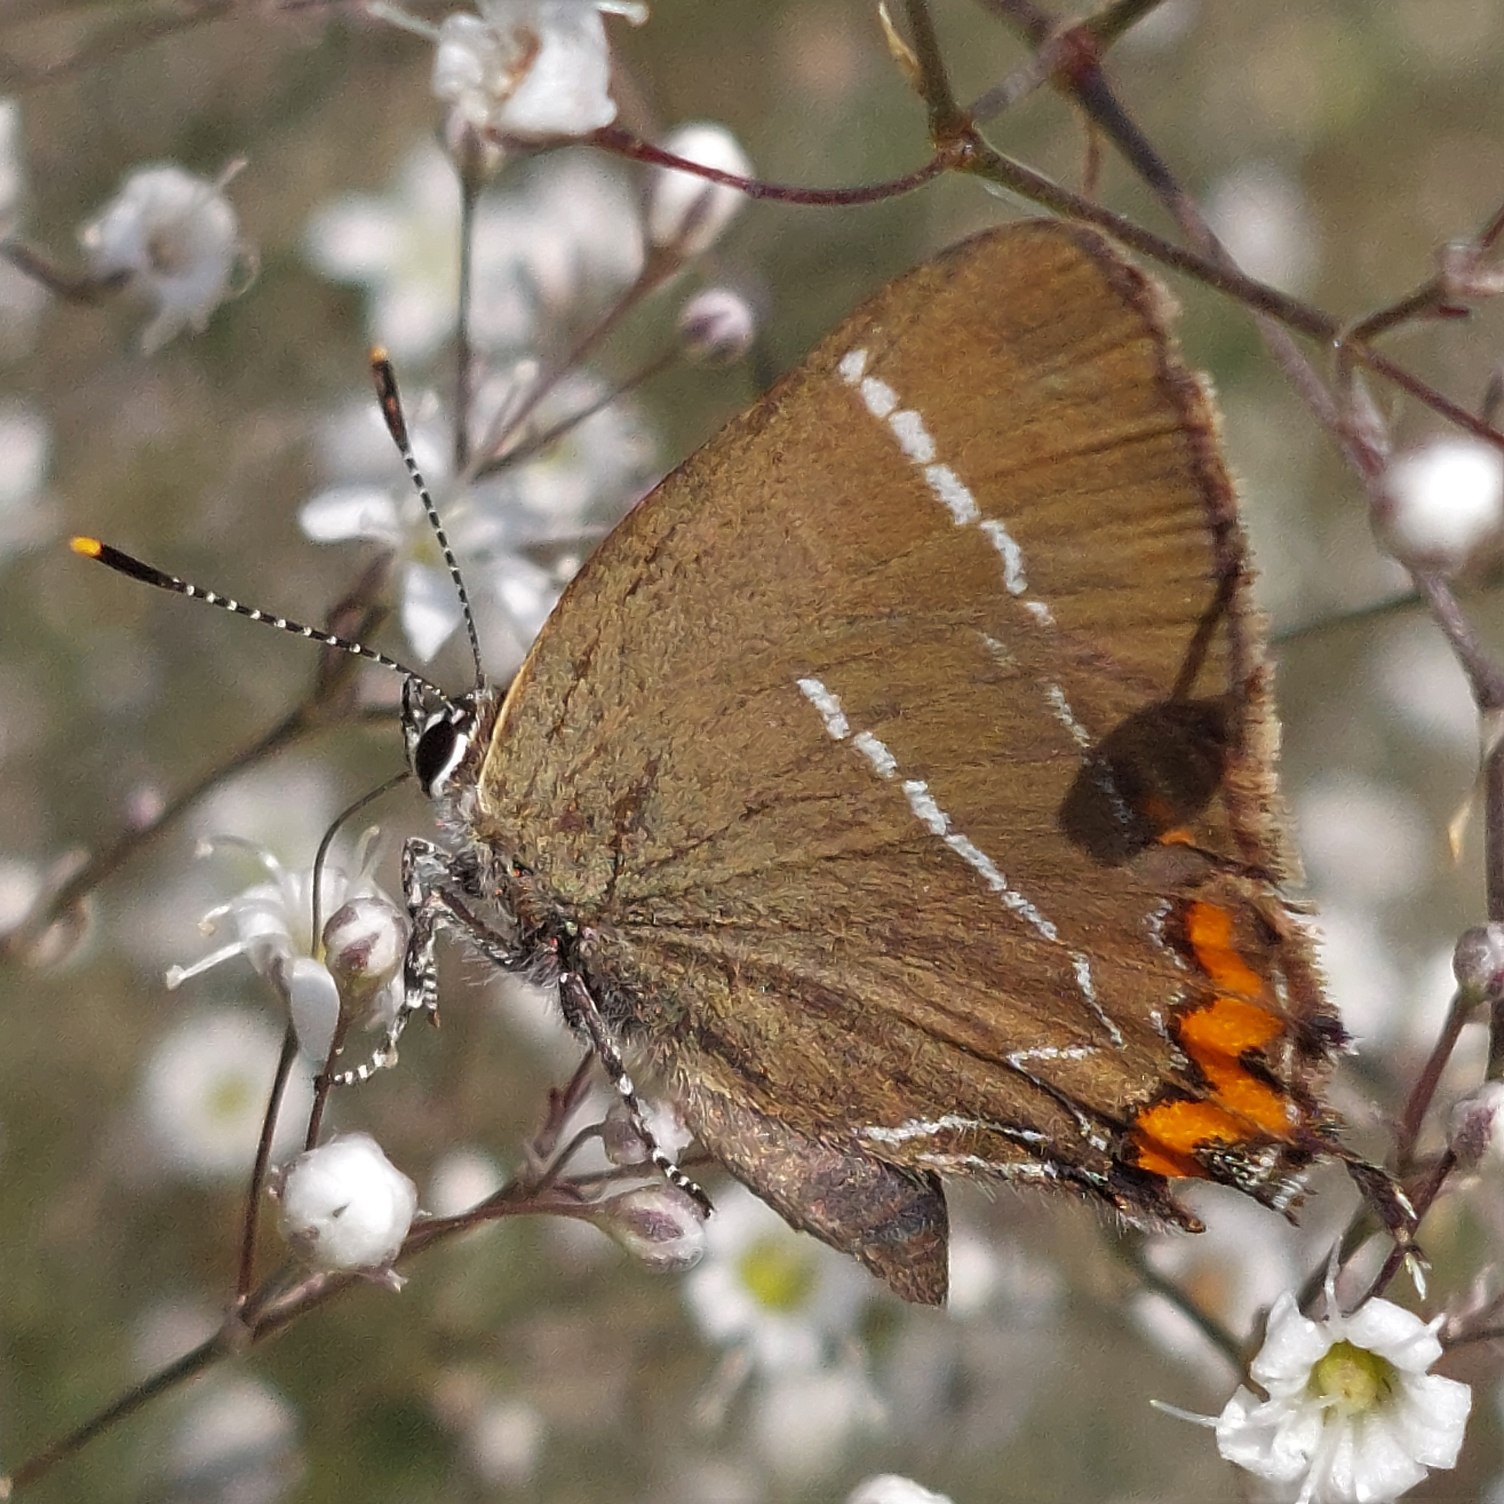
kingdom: Animalia
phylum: Arthropoda
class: Insecta
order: Lepidoptera
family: Lycaenidae
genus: Satyrium
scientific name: Satyrium w-album
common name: Det hvide W
